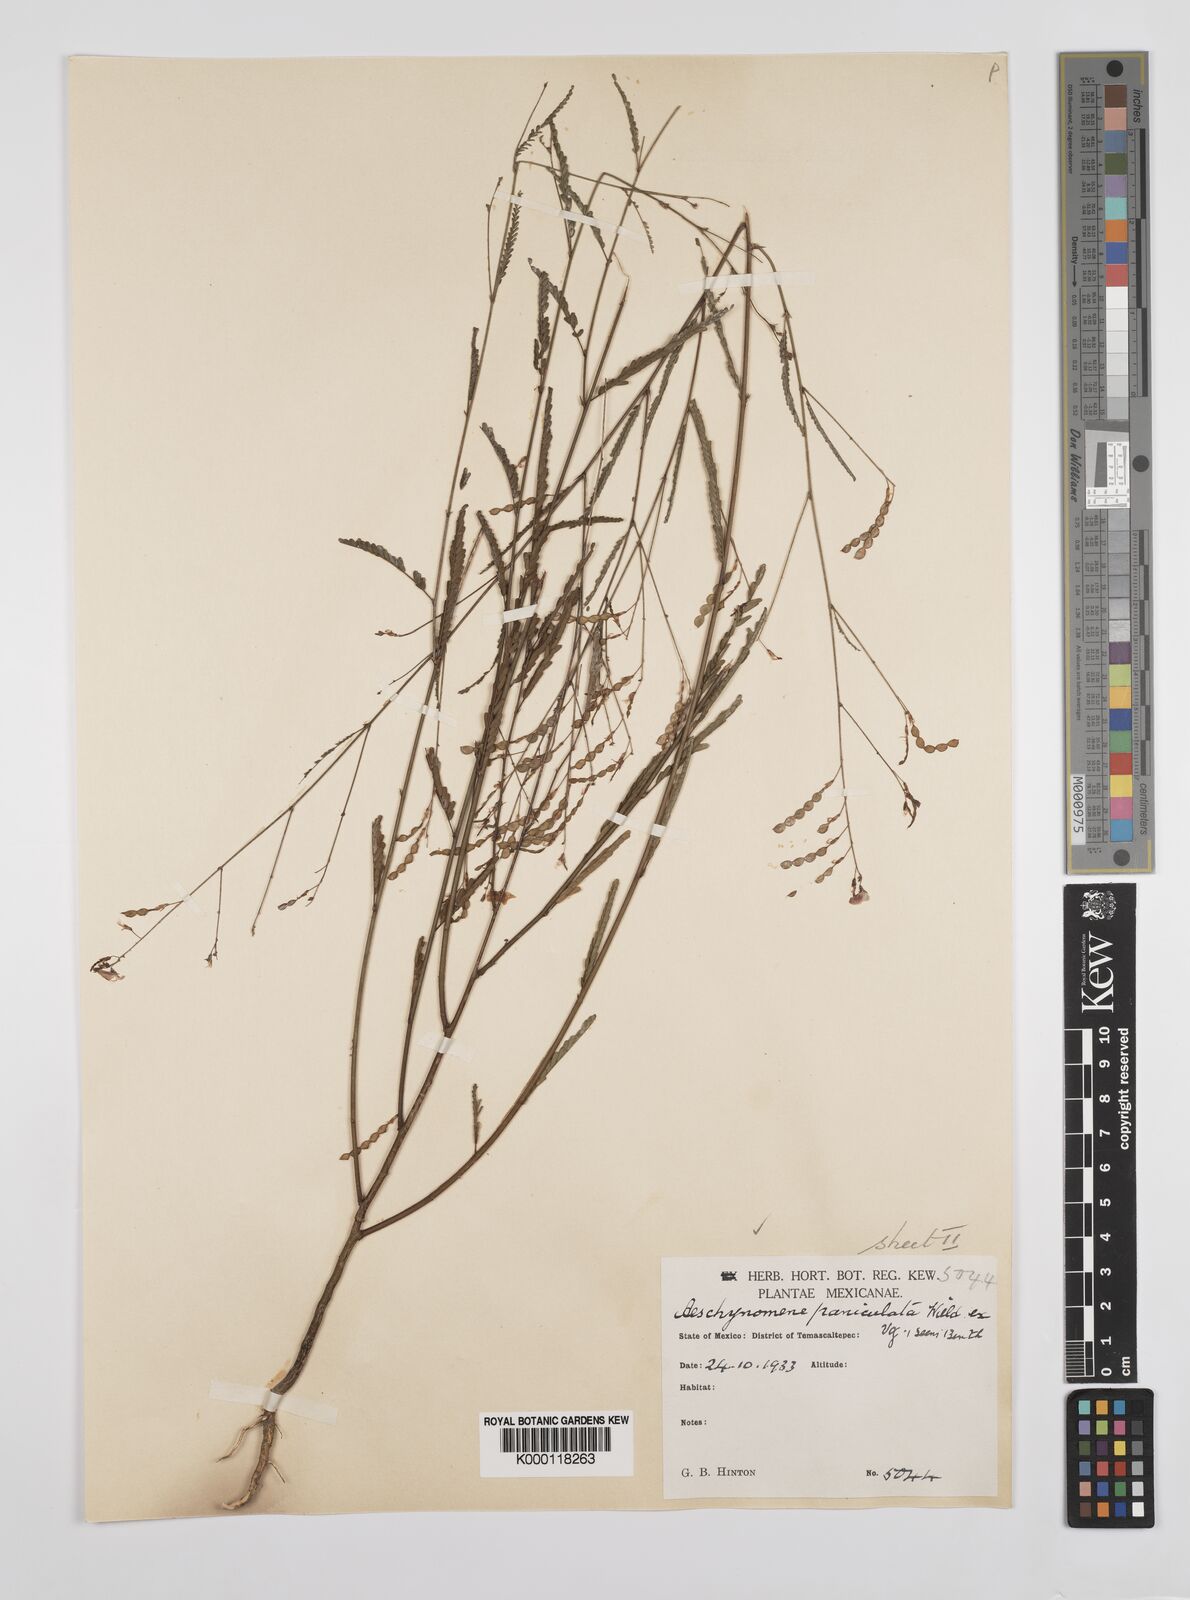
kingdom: Plantae
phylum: Tracheophyta
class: Magnoliopsida
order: Fabales
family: Fabaceae
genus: Ctenodon
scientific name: Ctenodon paniculatus
